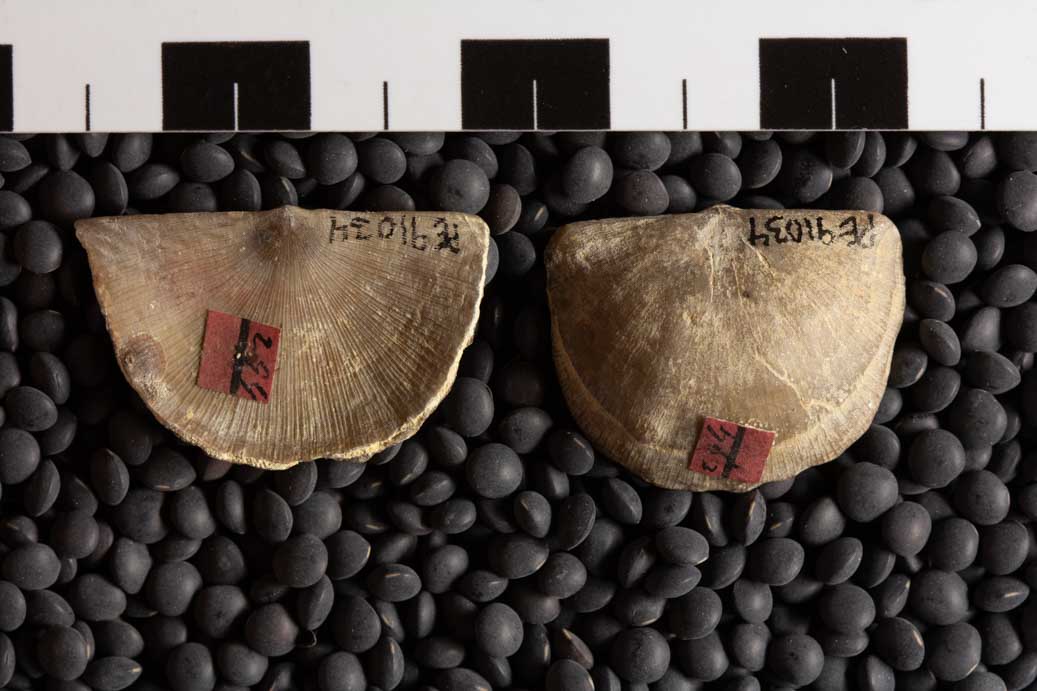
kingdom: Animalia
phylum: Brachiopoda
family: Streptorhynchidae
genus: Streptorhynchus
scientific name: Streptorhynchus
